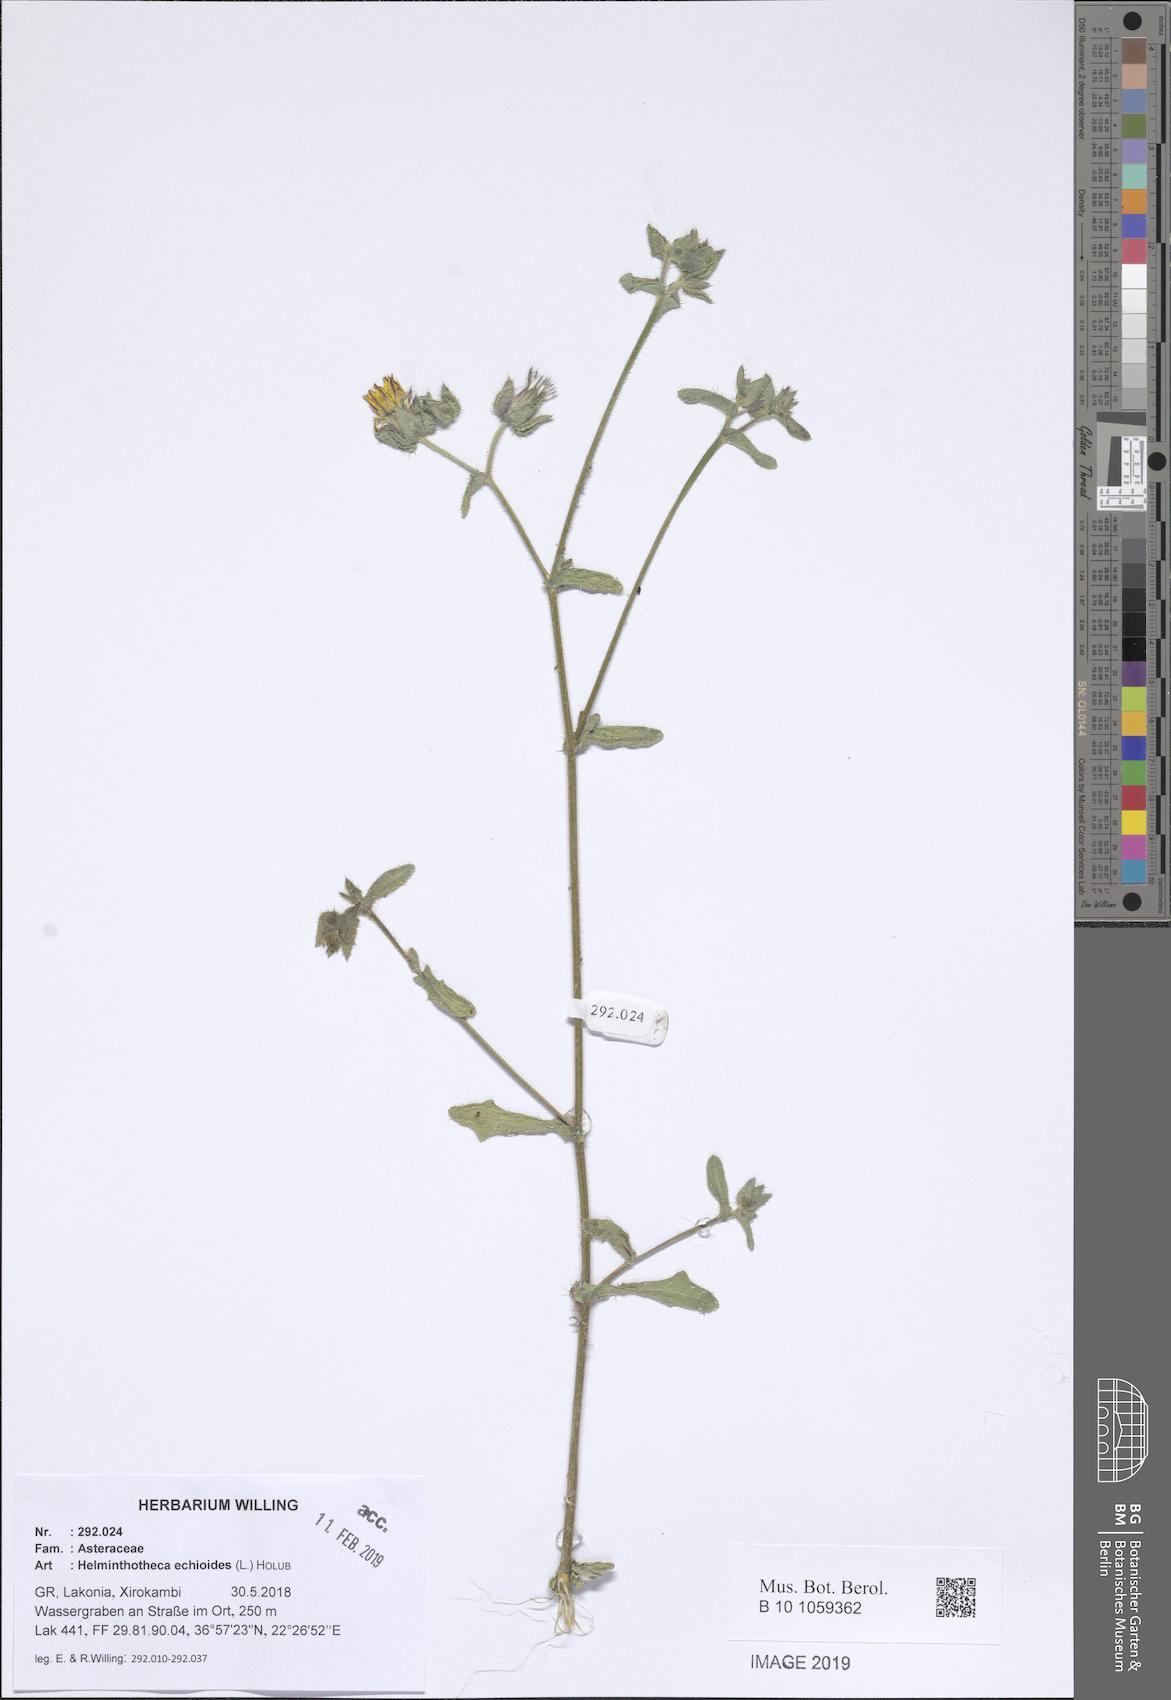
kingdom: Plantae
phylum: Tracheophyta
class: Magnoliopsida
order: Asterales
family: Asteraceae
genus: Helminthotheca
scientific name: Helminthotheca echioides
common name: Ox-tongue
